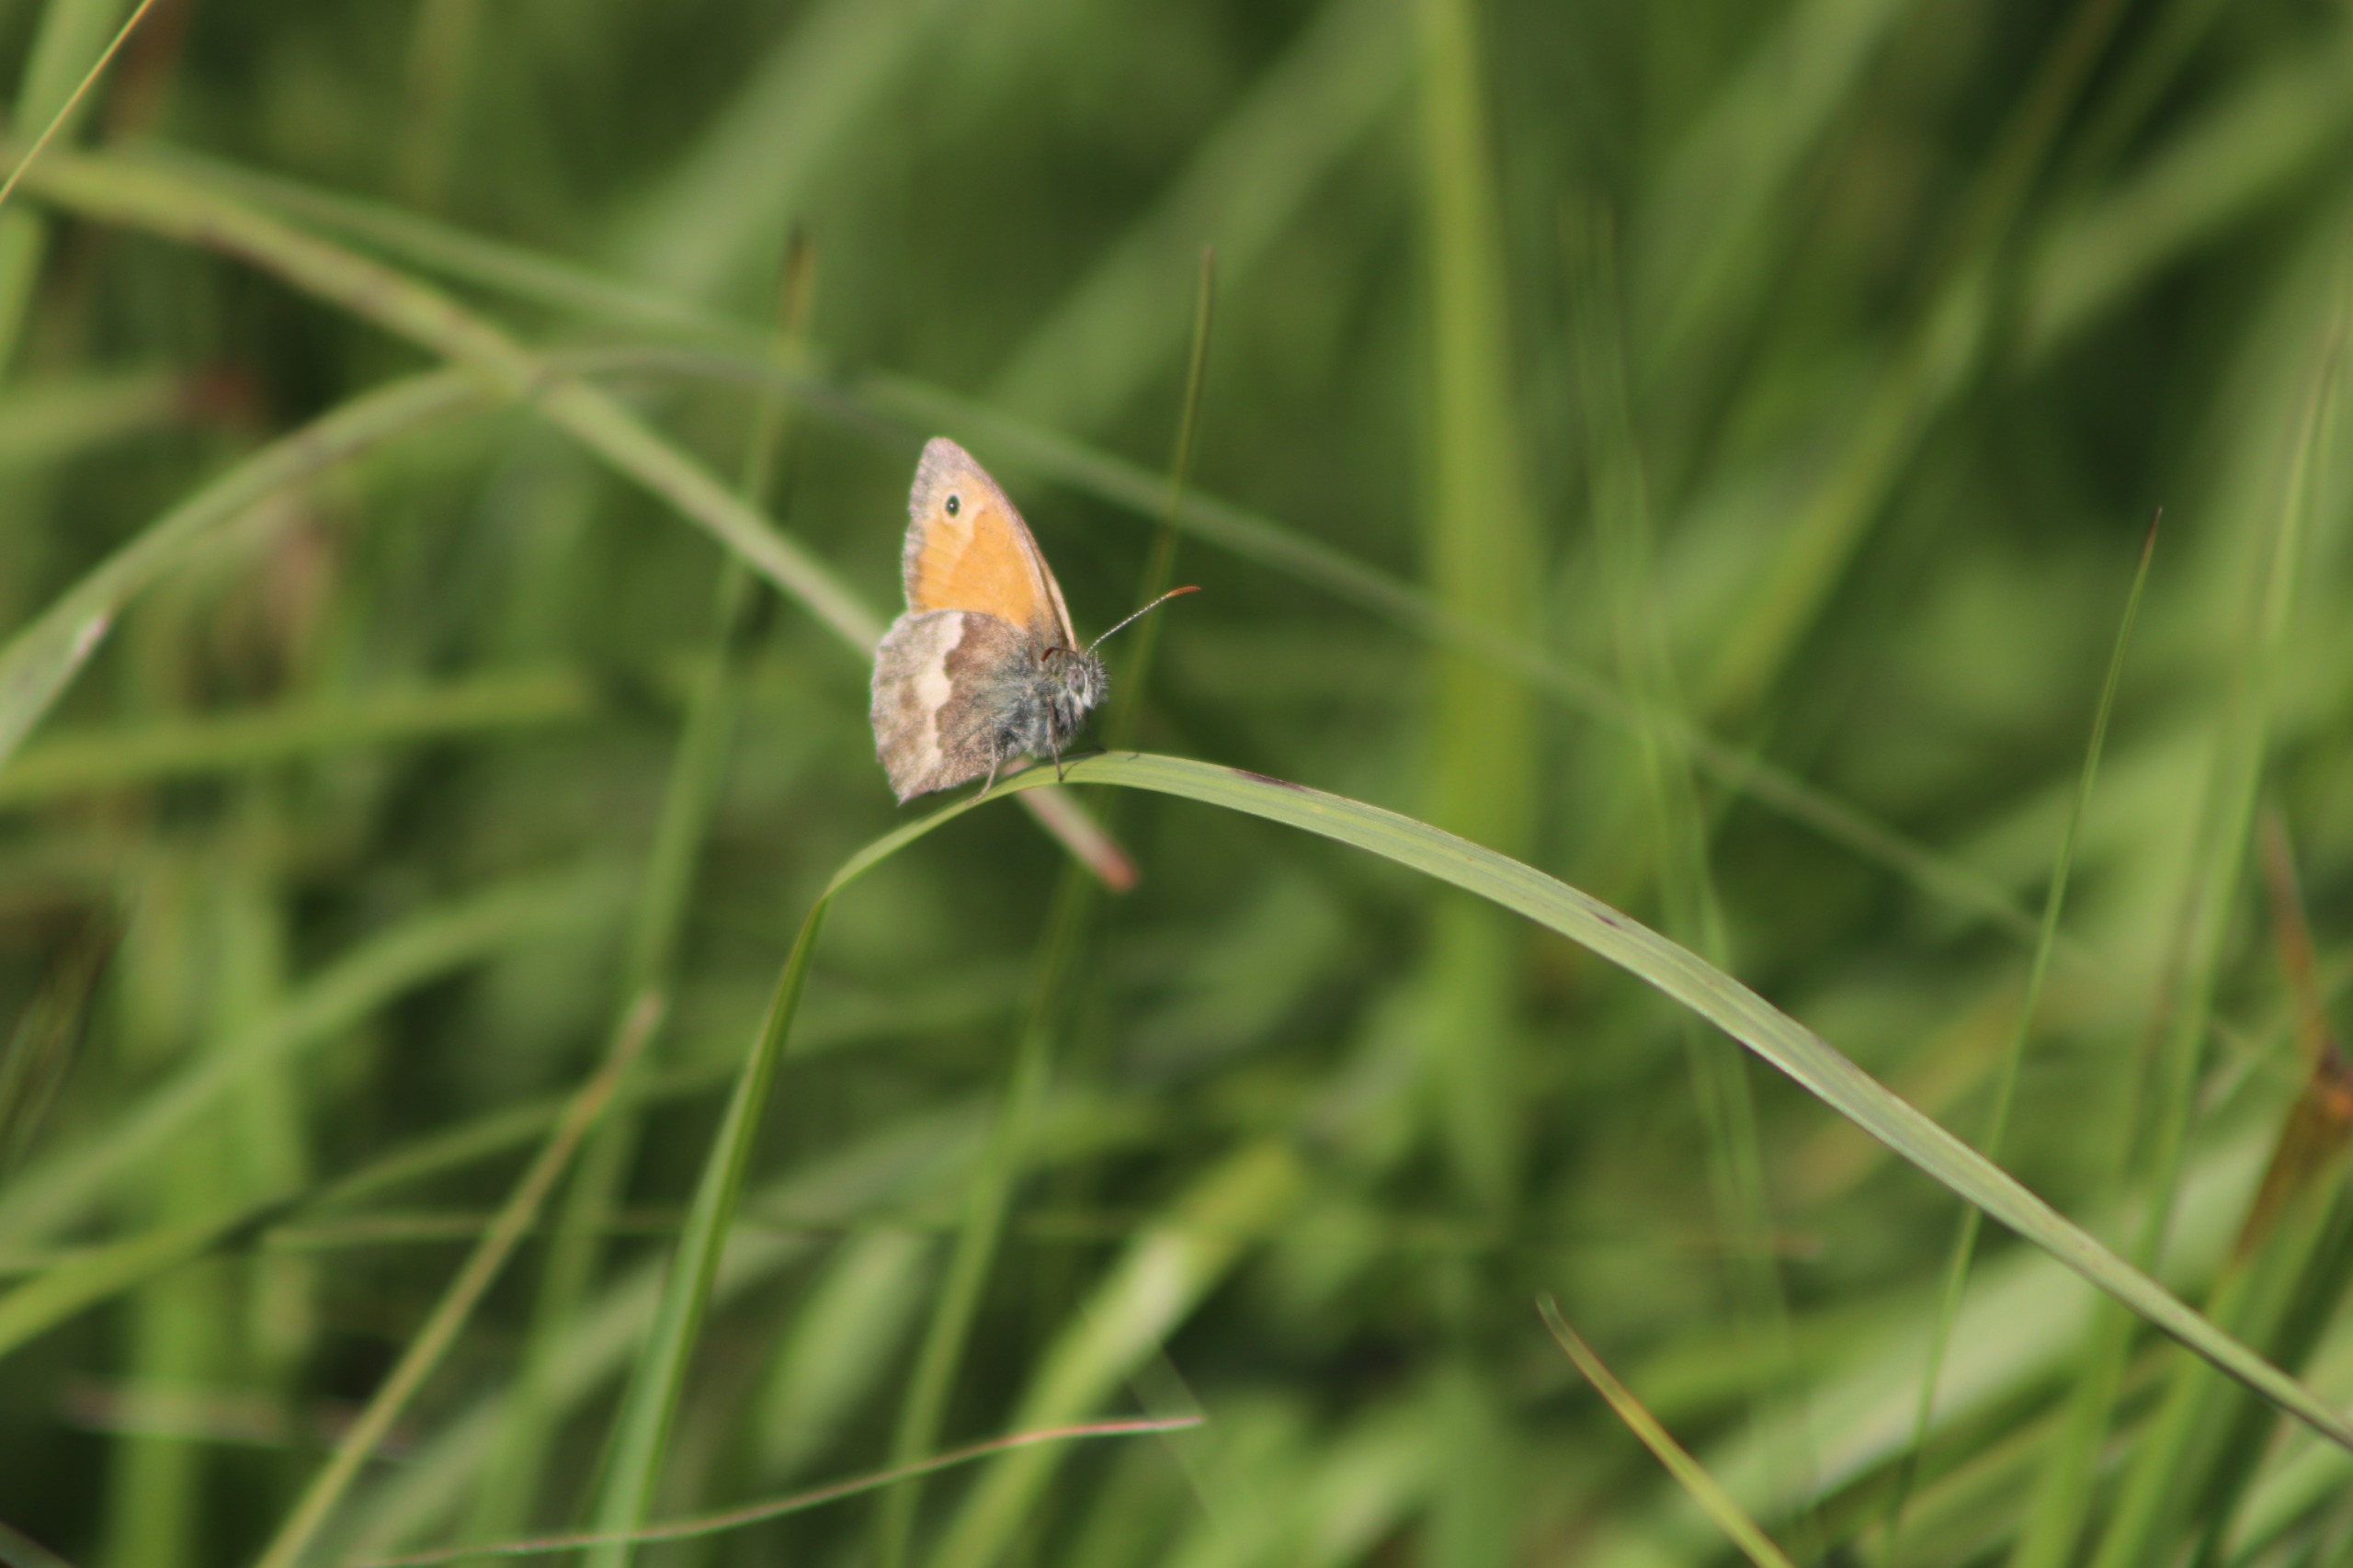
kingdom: Animalia
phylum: Arthropoda
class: Insecta
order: Lepidoptera
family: Nymphalidae
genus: Coenonympha
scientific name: Coenonympha pamphilus
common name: Okkergul randøje
